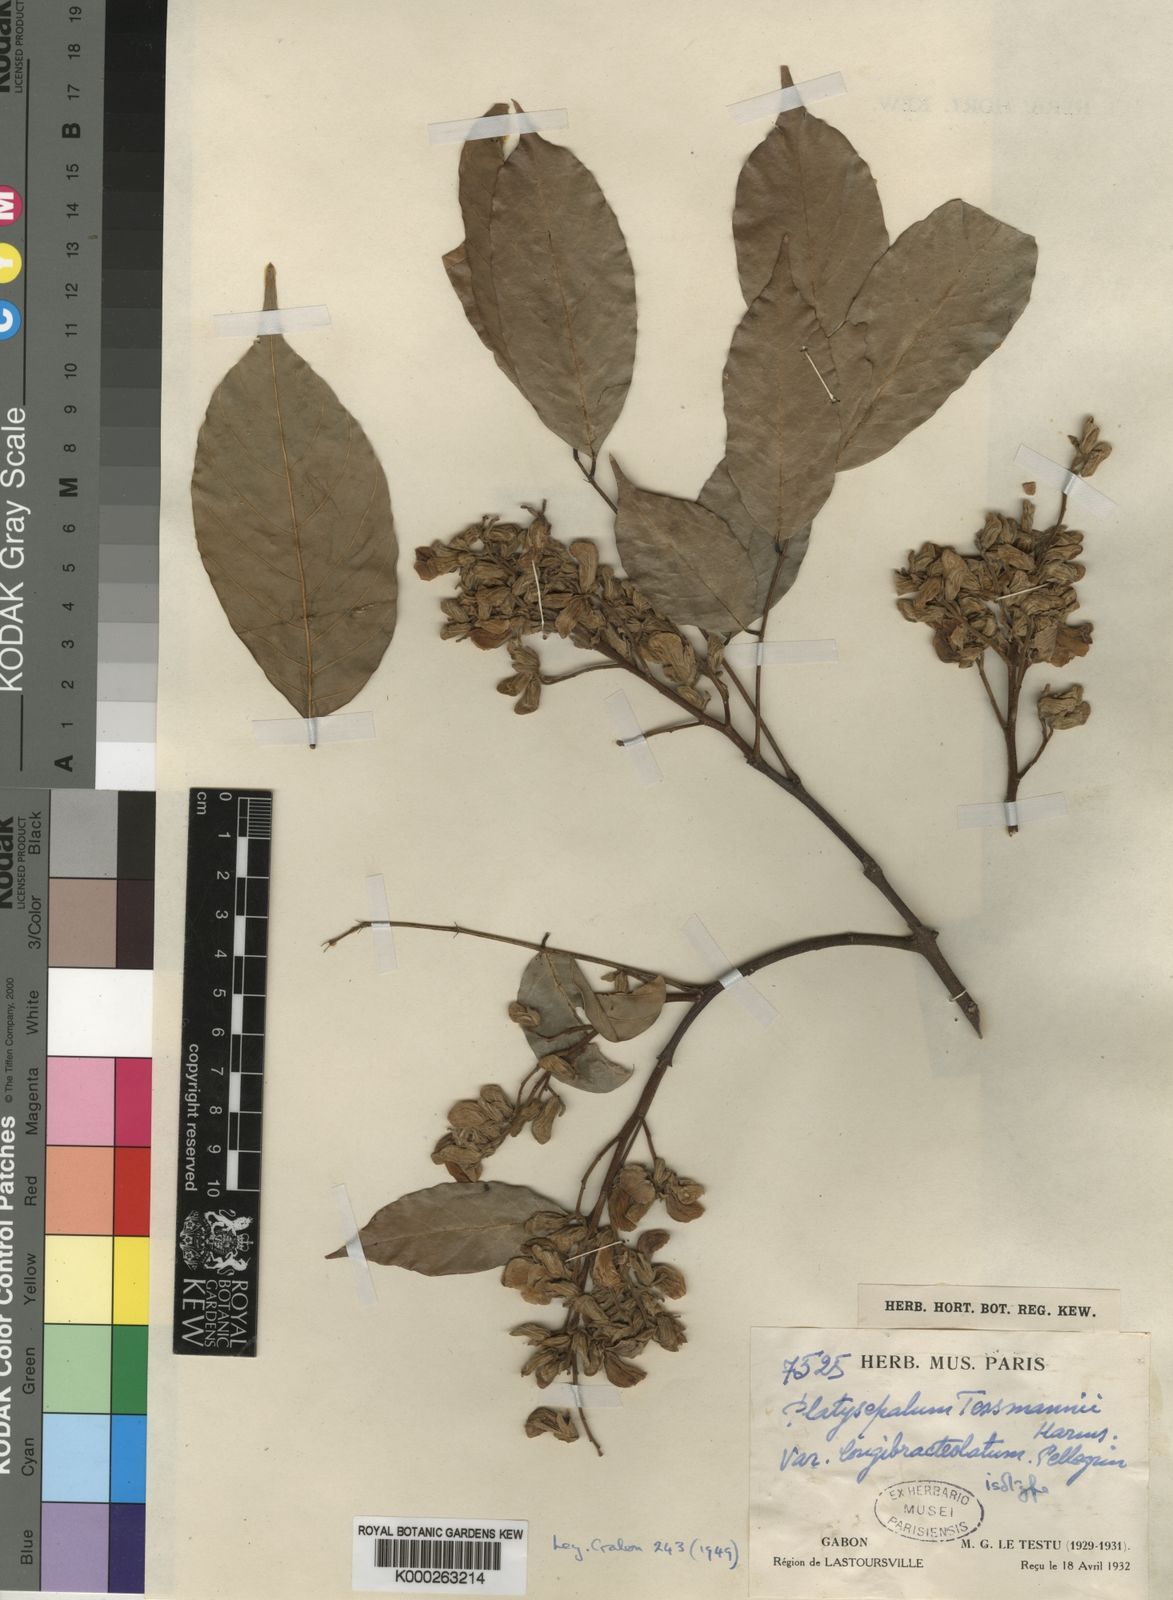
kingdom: Plantae
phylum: Tracheophyta
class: Magnoliopsida
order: Fabales
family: Fabaceae
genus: Platysepalum
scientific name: Platysepalum violaceum
